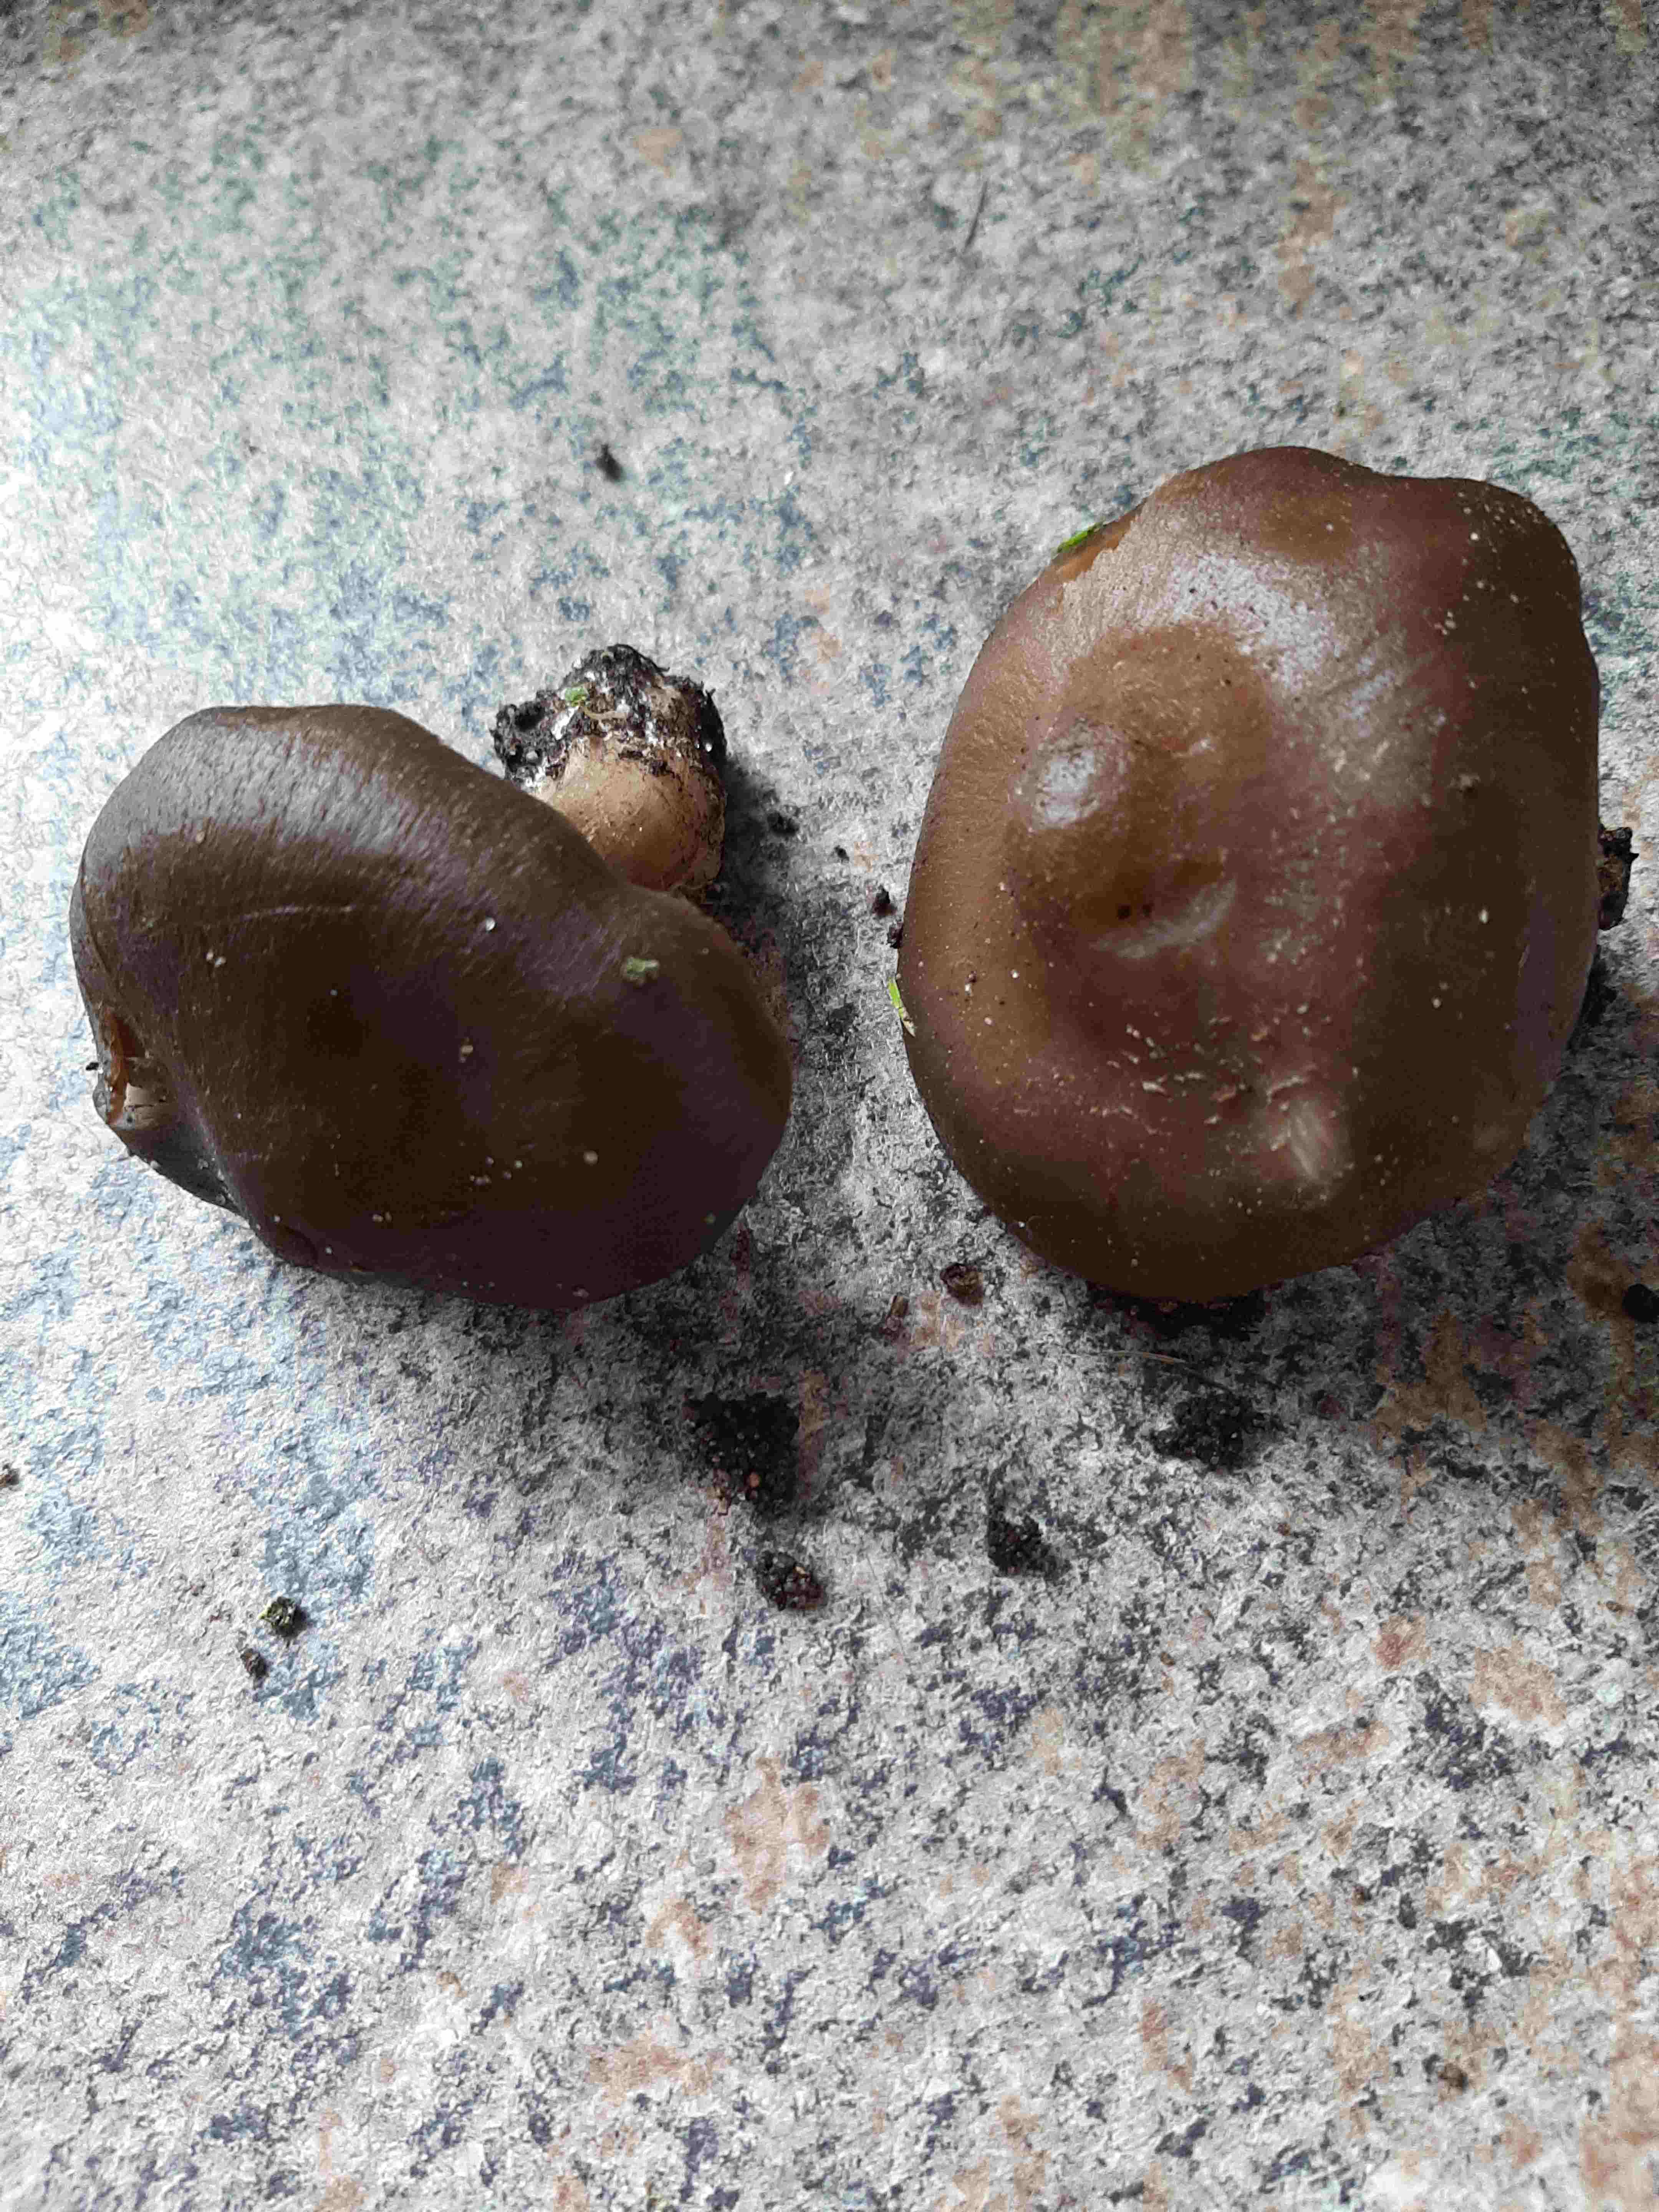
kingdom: Fungi
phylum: Basidiomycota
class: Agaricomycetes
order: Agaricales
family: Entolomataceae
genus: Entoloma
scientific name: Entoloma
